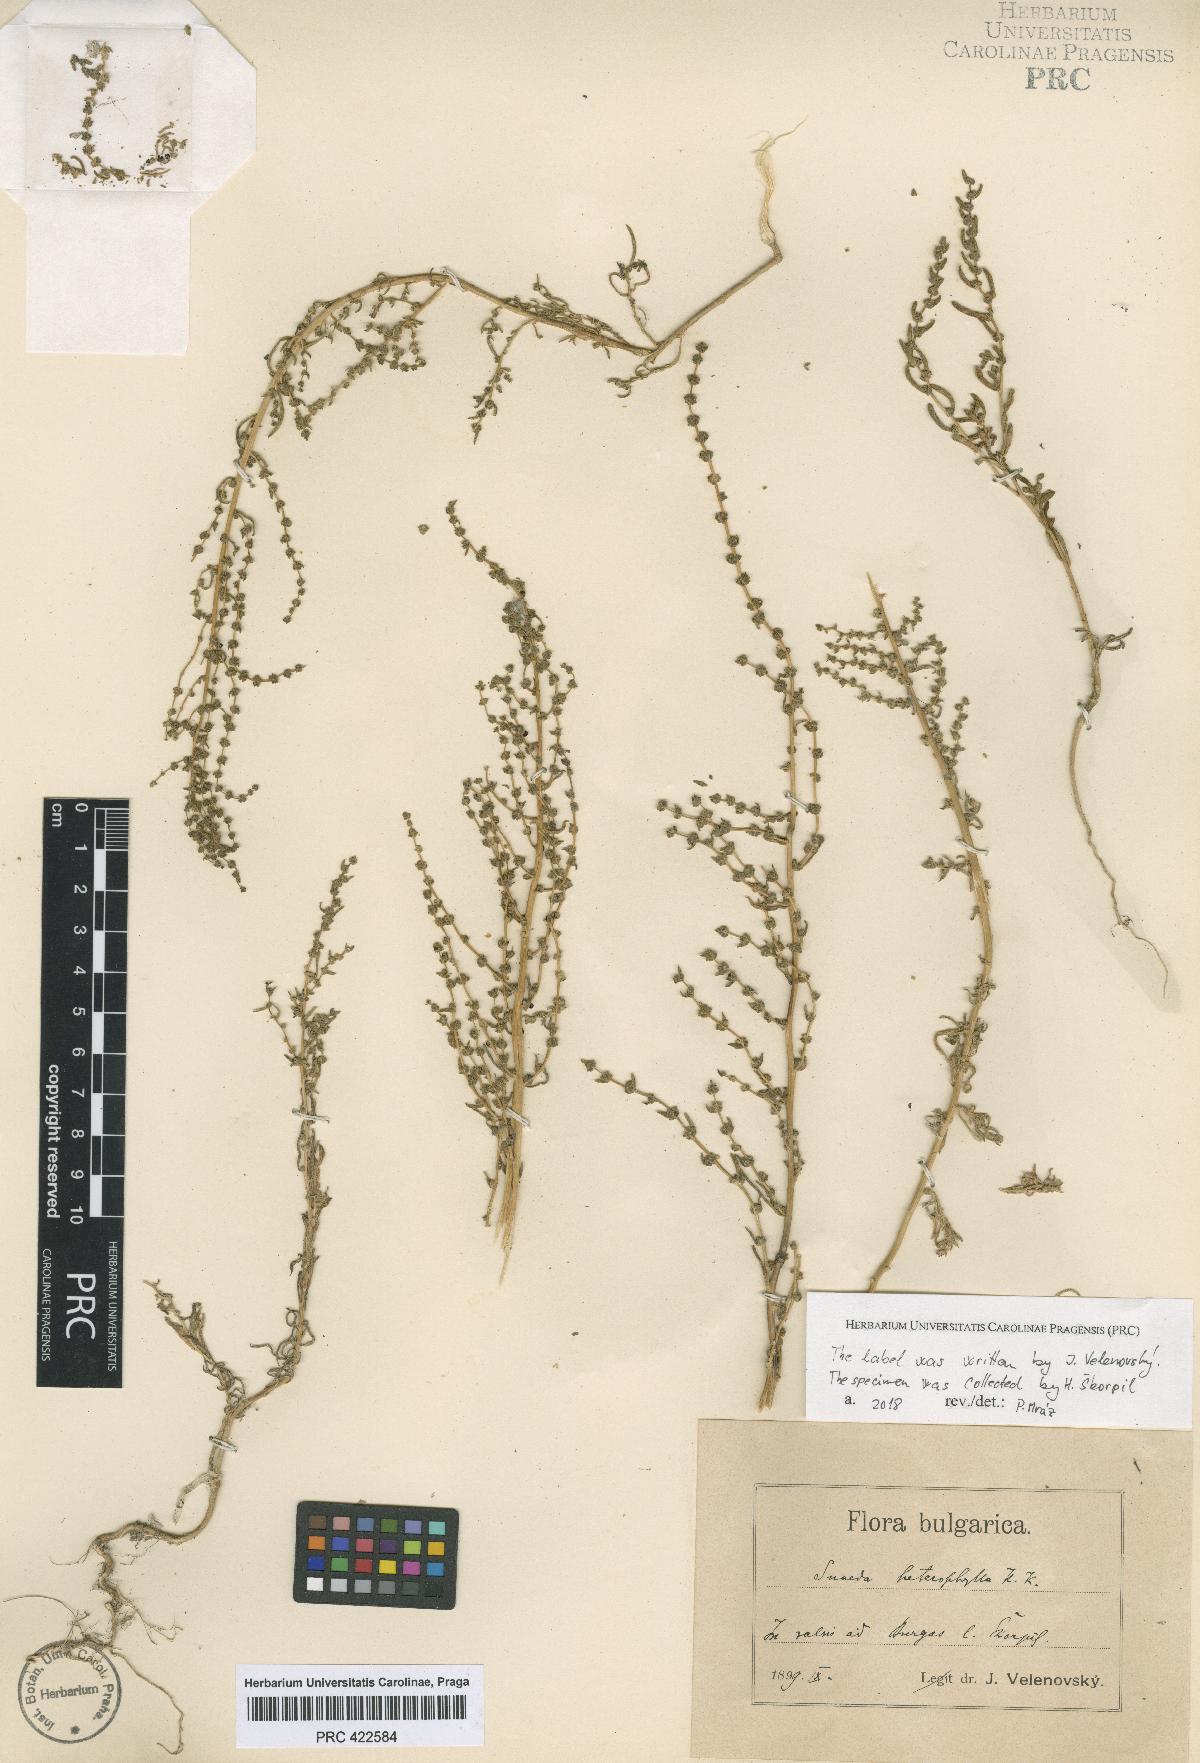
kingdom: Plantae
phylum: Tracheophyta
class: Magnoliopsida
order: Caryophyllales
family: Amaranthaceae
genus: Suaeda
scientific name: Suaeda heterophylla
